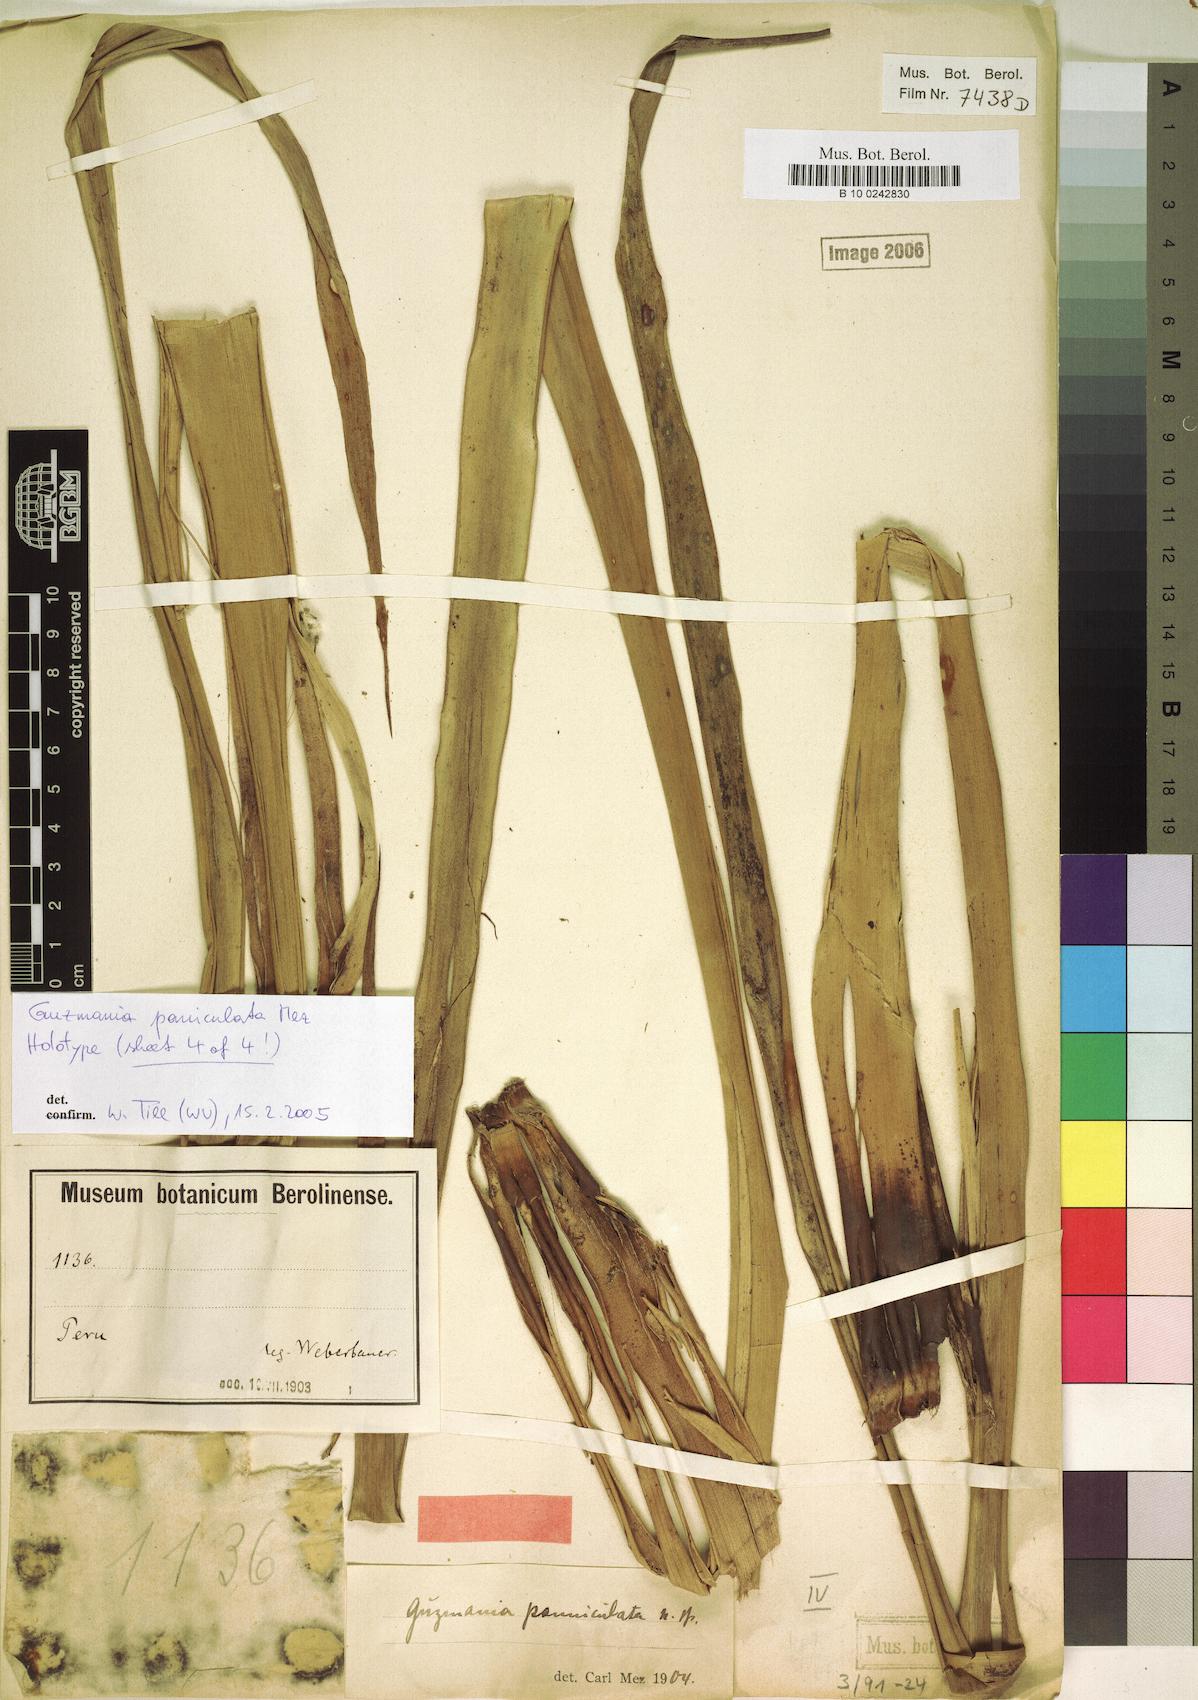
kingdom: Plantae
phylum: Tracheophyta
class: Liliopsida
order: Poales
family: Bromeliaceae
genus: Guzmania
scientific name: Guzmania paniculata
